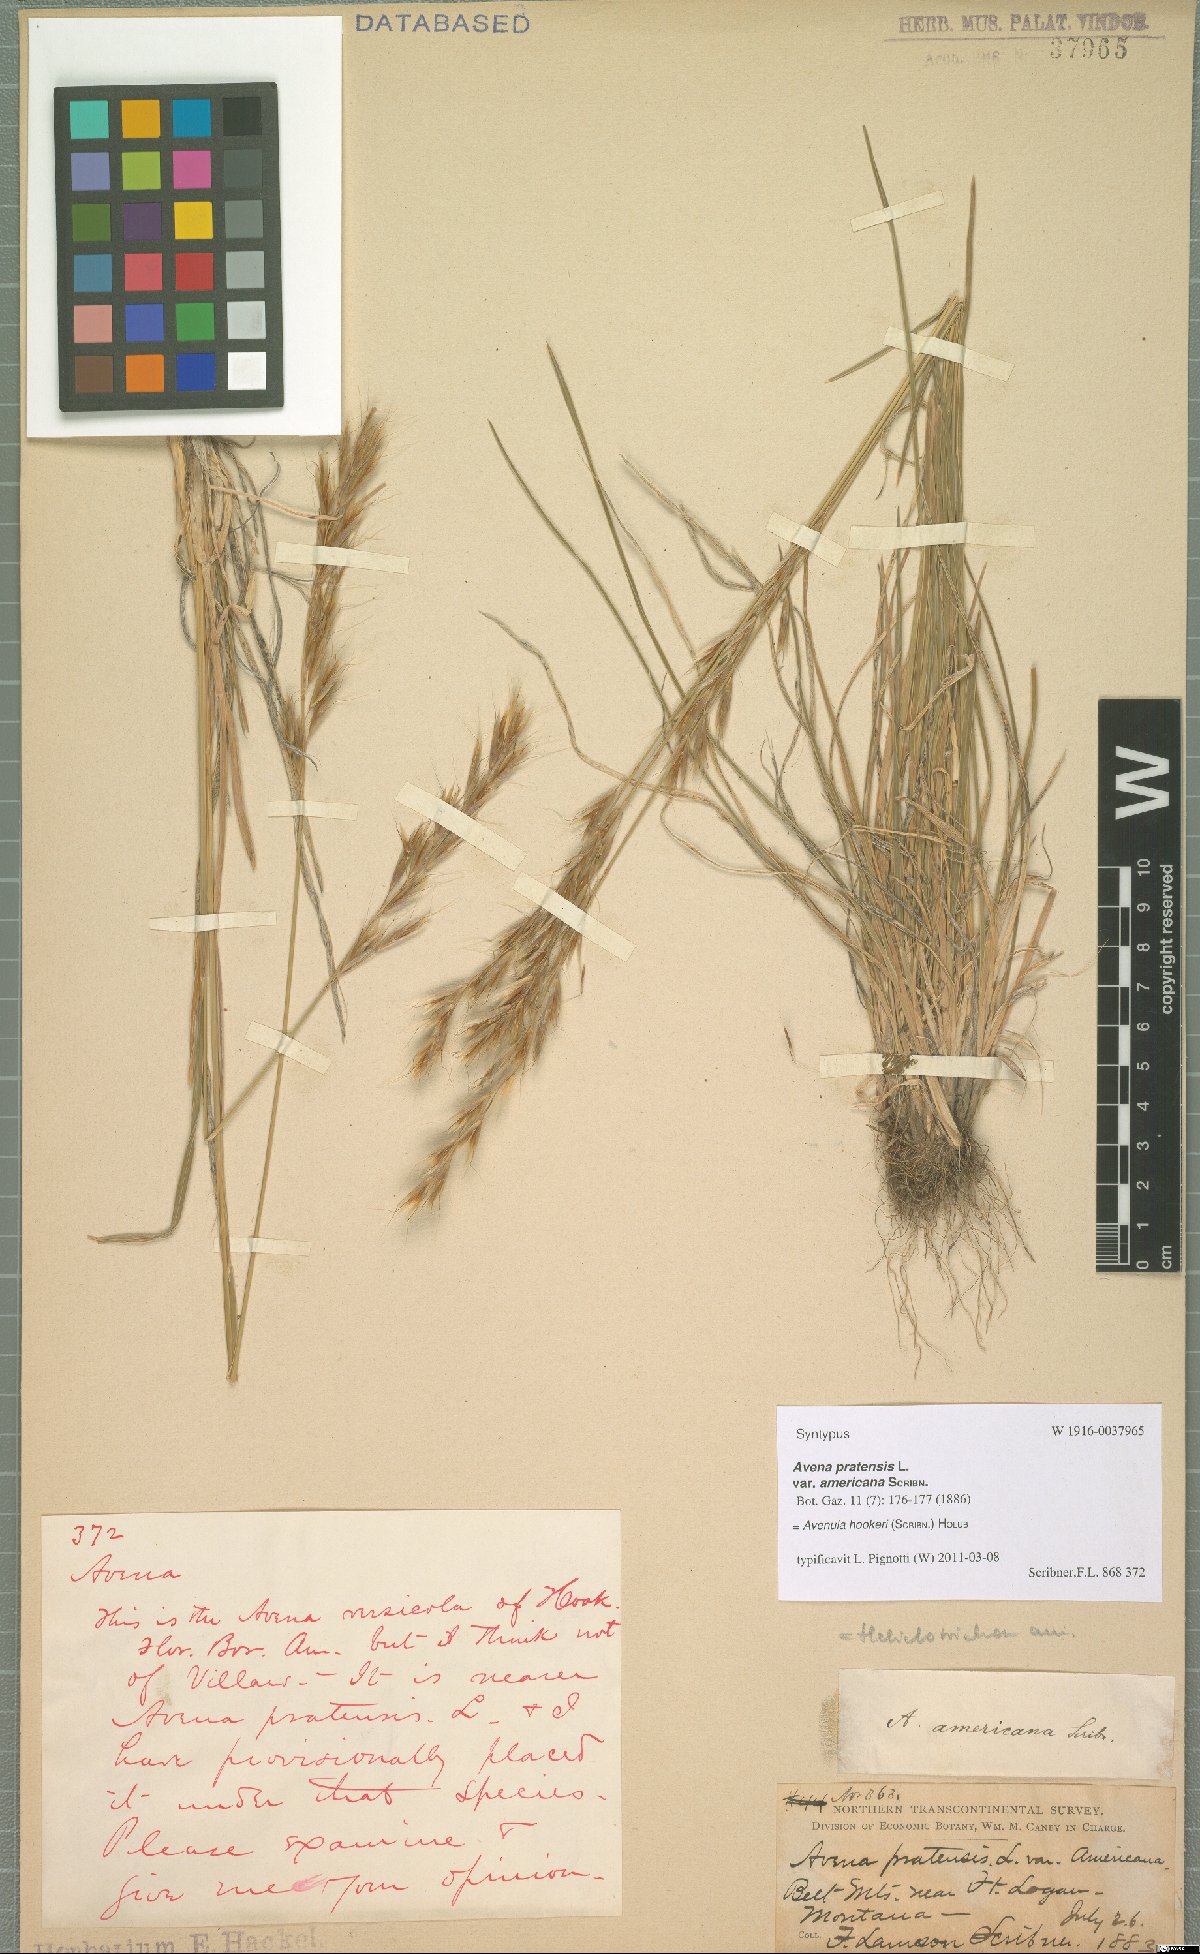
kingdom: Plantae
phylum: Tracheophyta
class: Liliopsida
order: Poales
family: Poaceae
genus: Helictochloa
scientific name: Helictochloa hookeri
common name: Hooker's alpine oatgrass
